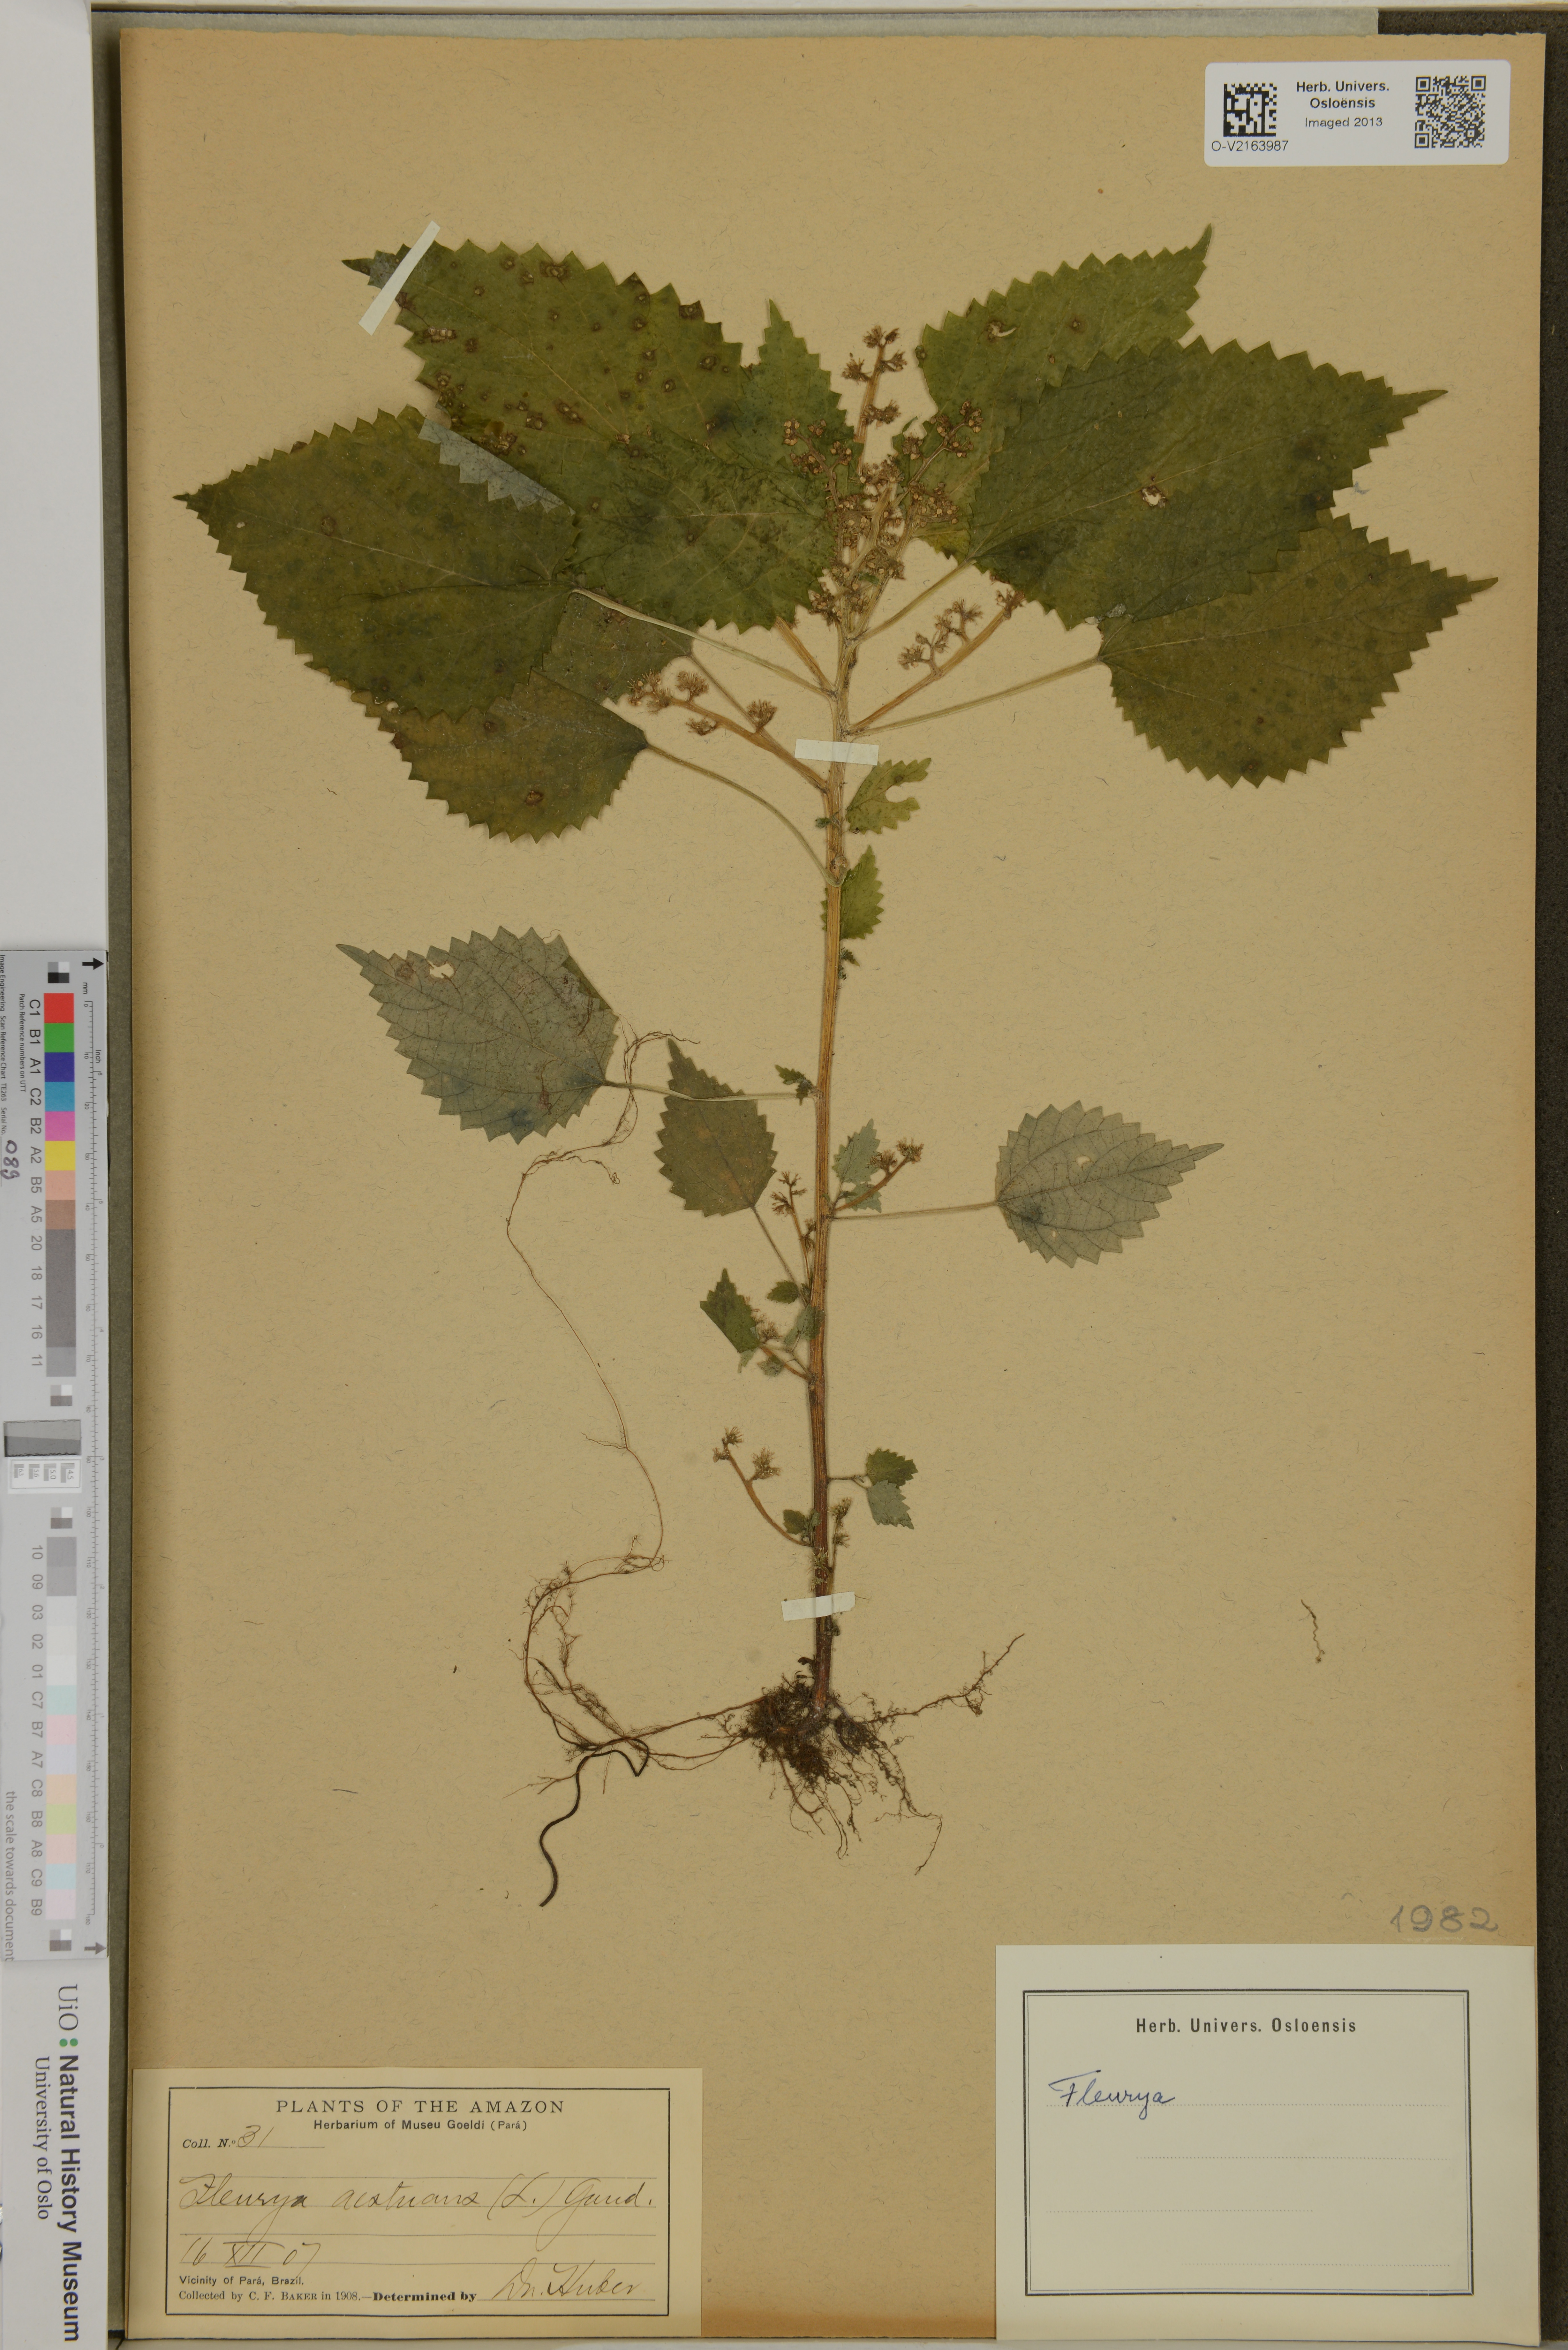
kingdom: Plantae
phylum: Tracheophyta
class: Magnoliopsida
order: Rosales
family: Urticaceae
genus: Laportea
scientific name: Laportea aestuans
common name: West indian woodnettle
